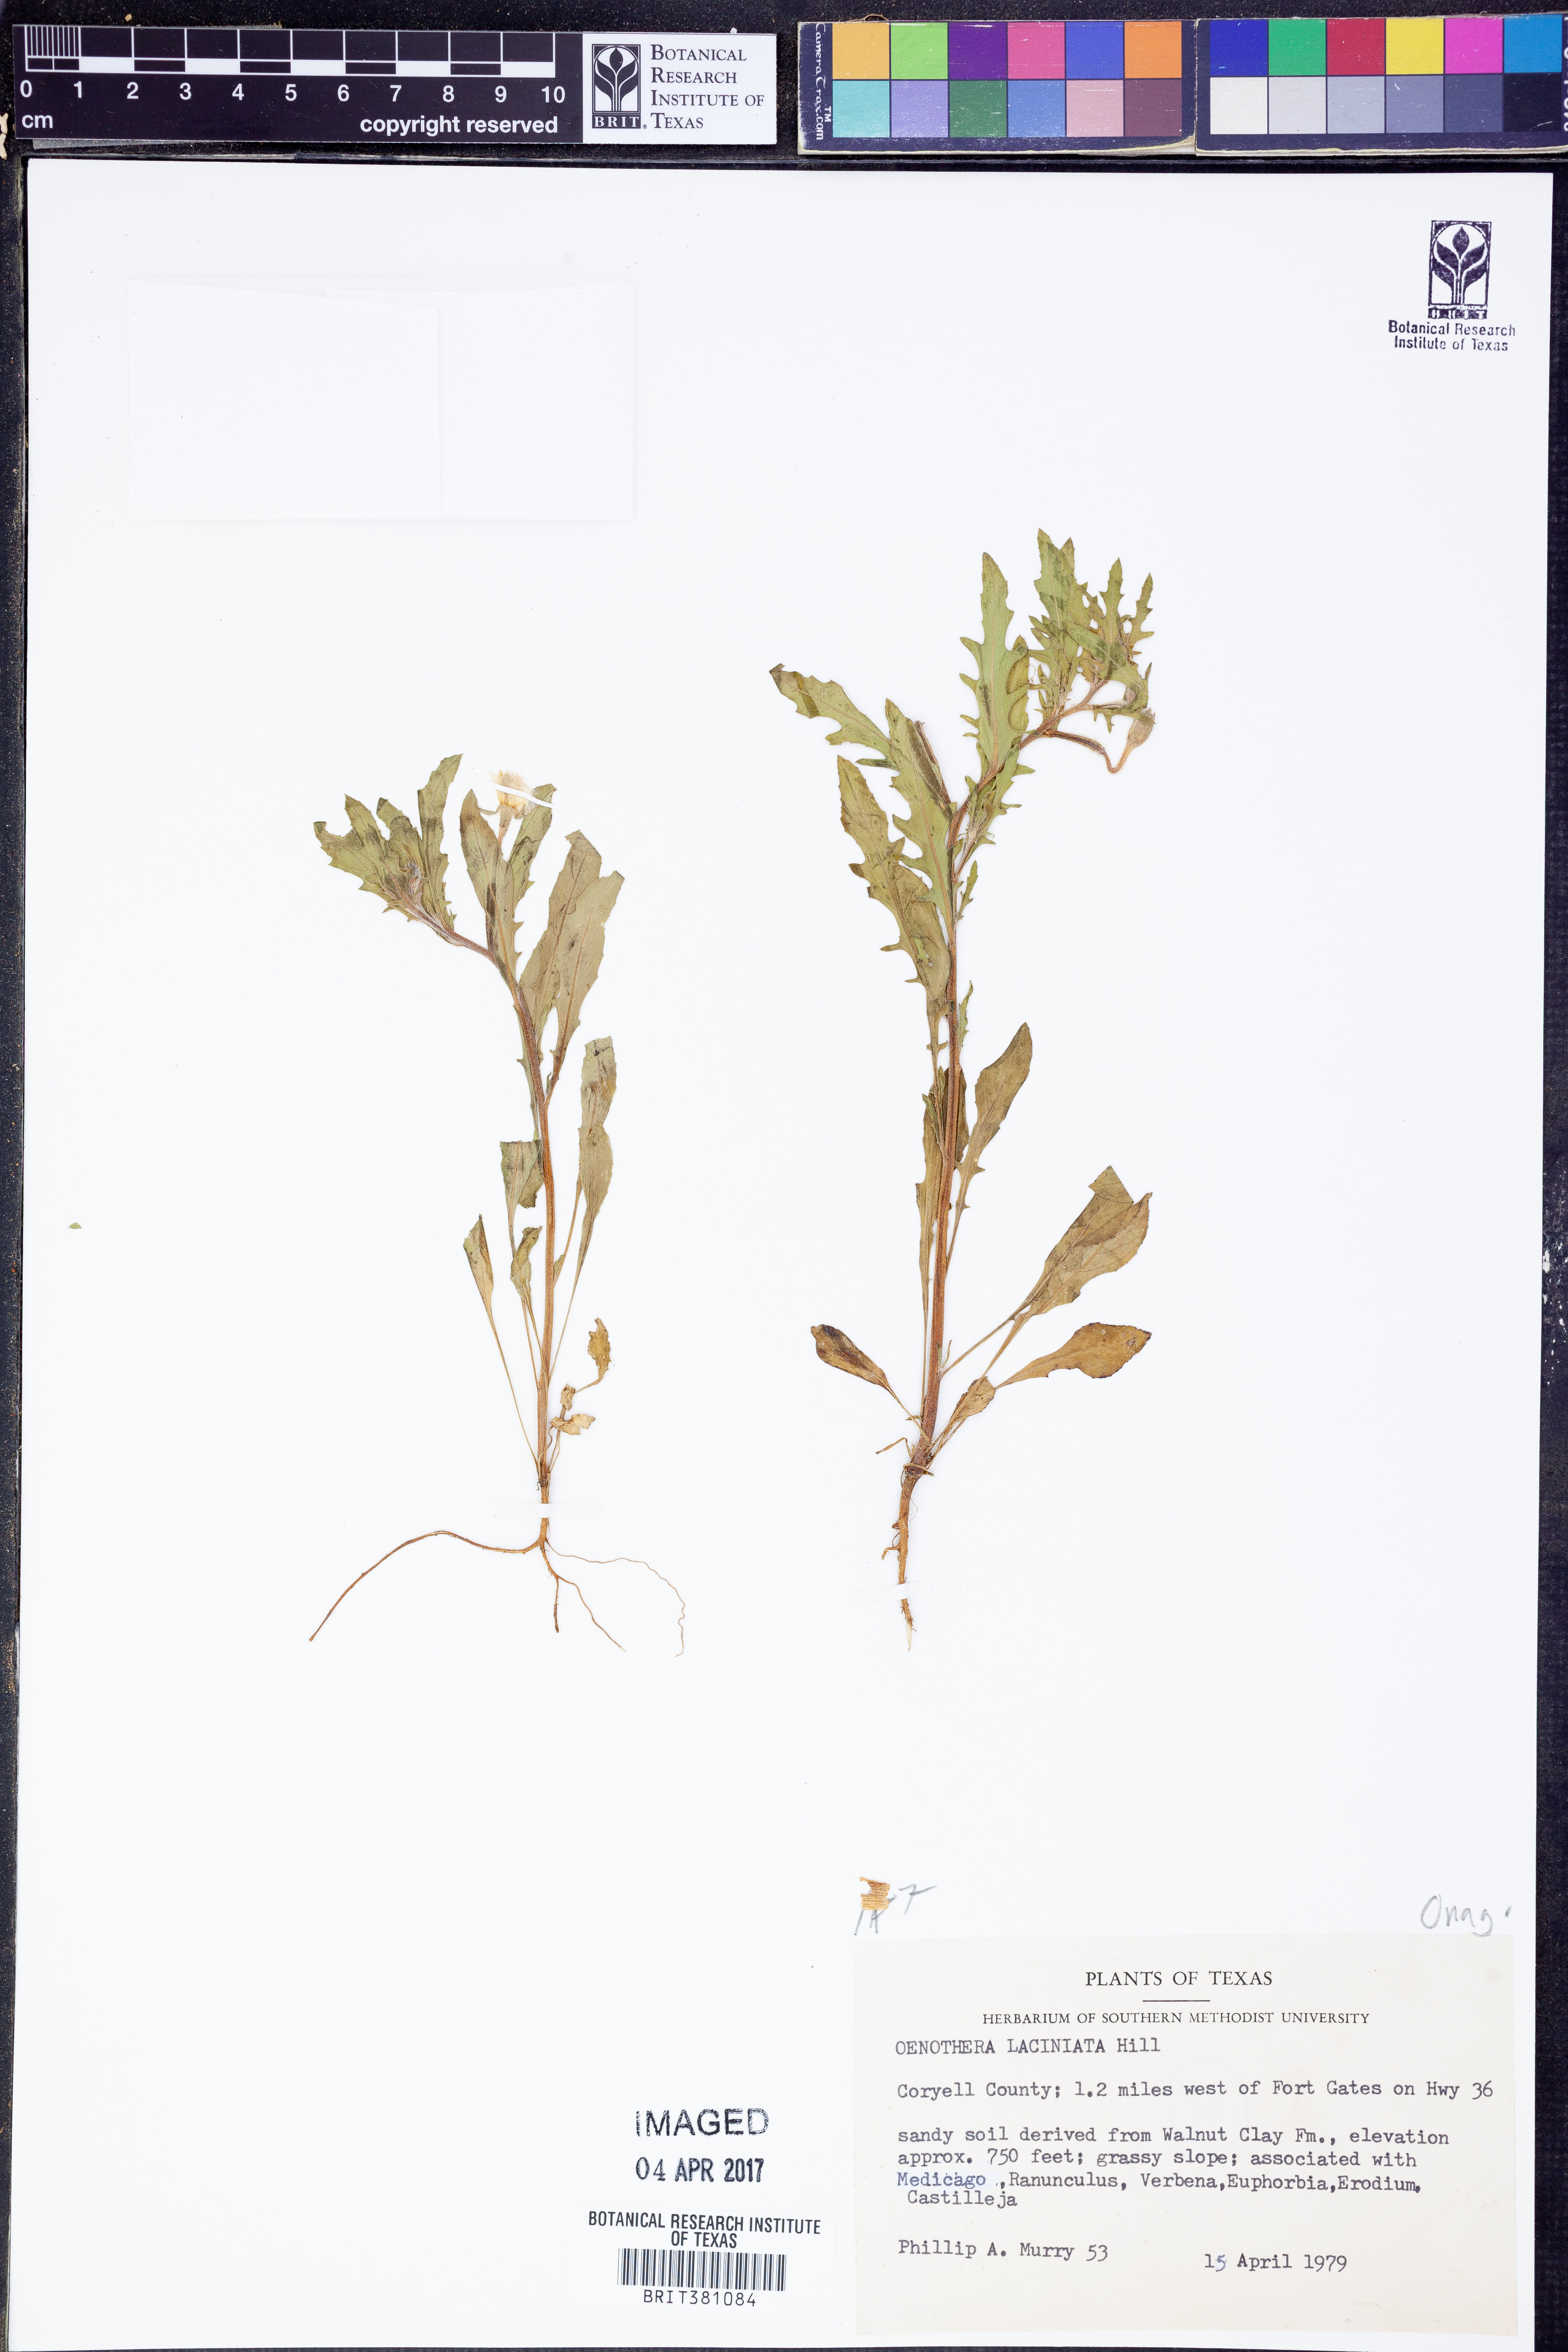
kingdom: Plantae
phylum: Tracheophyta
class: Magnoliopsida
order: Myrtales
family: Onagraceae
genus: Oenothera
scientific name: Oenothera laciniata
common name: Cut-leaved evening-primrose
